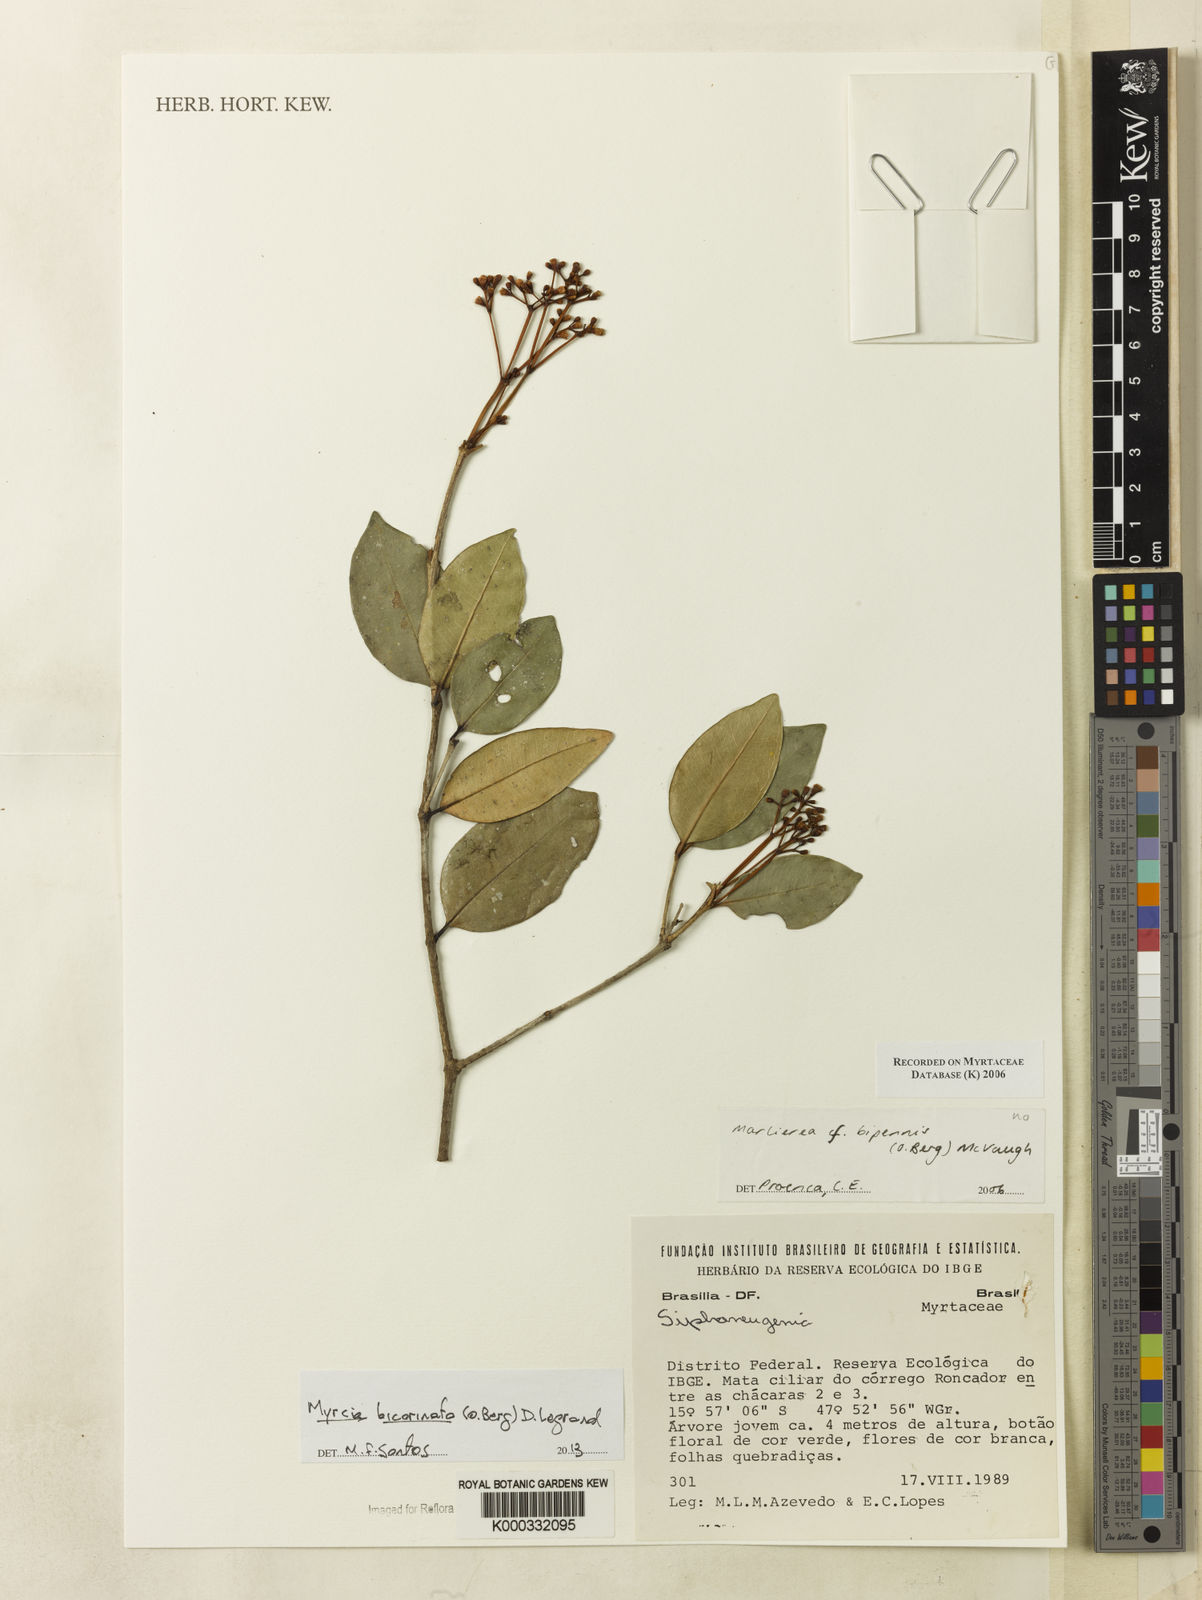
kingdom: Plantae
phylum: Tracheophyta
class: Magnoliopsida
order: Myrtales
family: Myrtaceae
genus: Myrcia
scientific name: Myrcia bipennis
